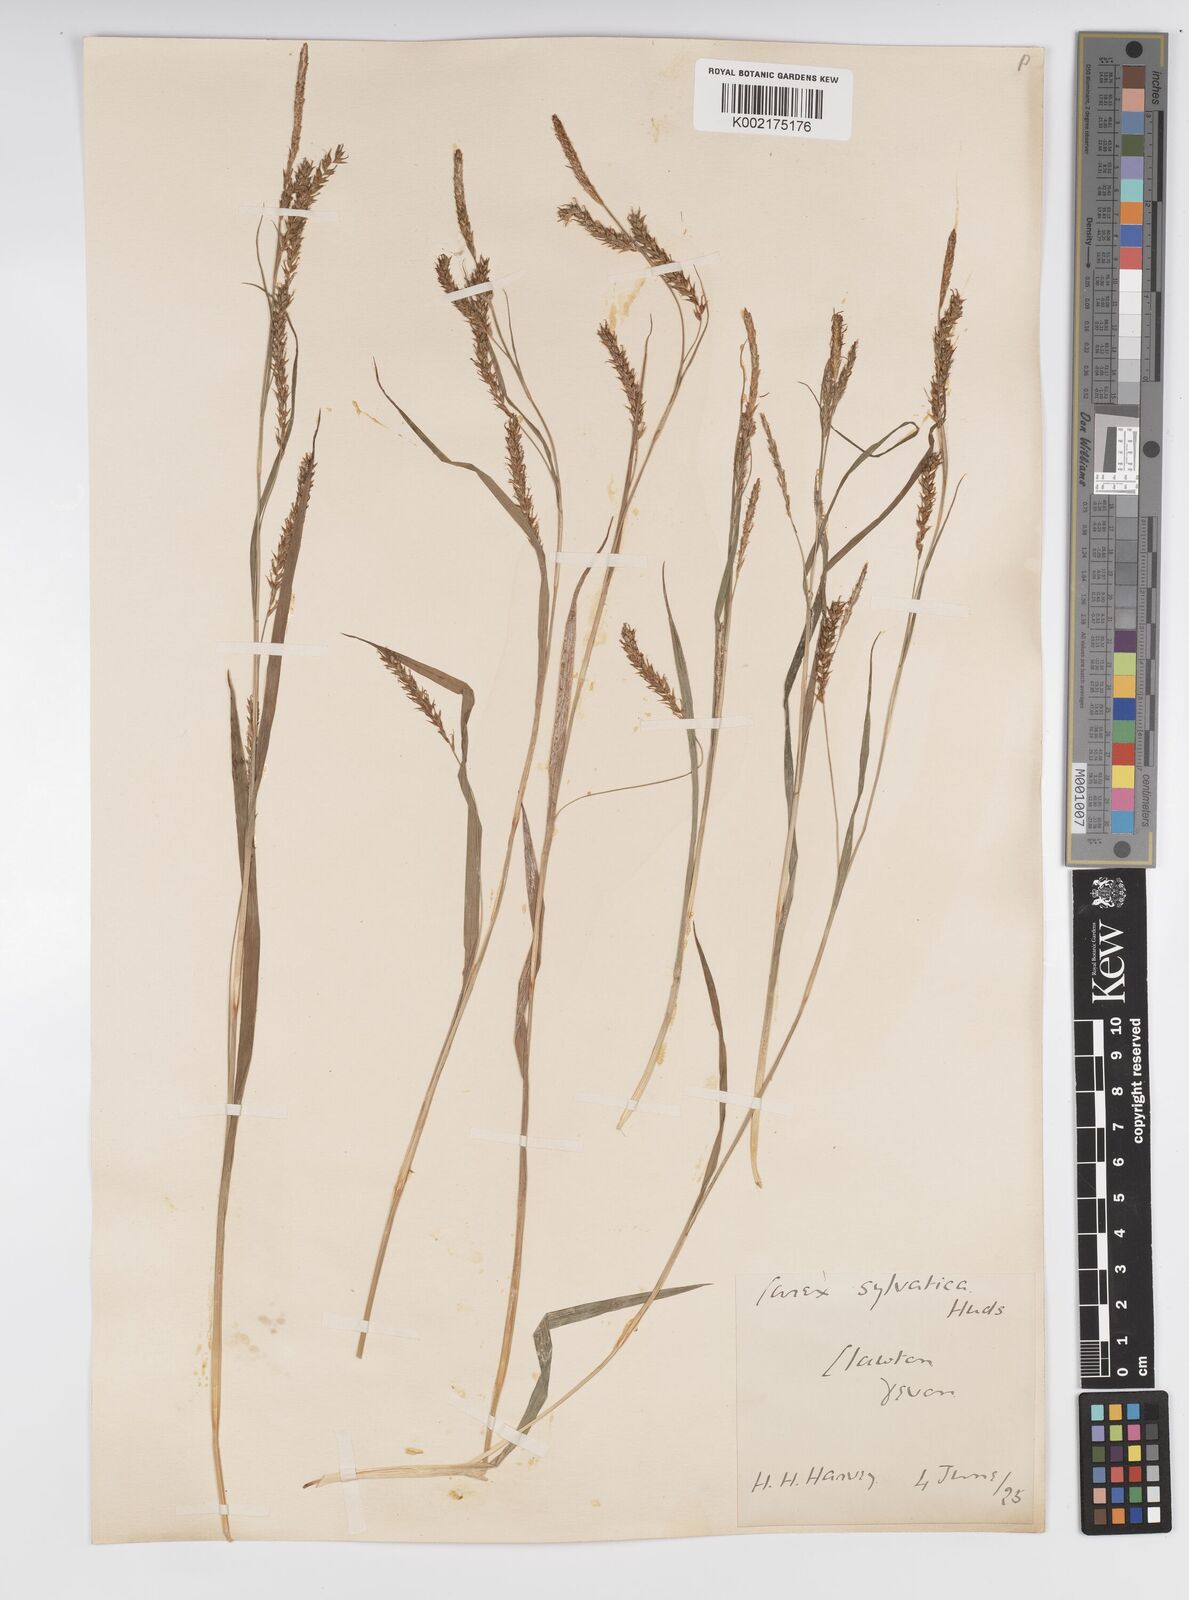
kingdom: Plantae
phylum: Tracheophyta
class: Liliopsida
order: Poales
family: Cyperaceae
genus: Carex
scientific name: Carex sylvatica
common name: Wood-sedge
